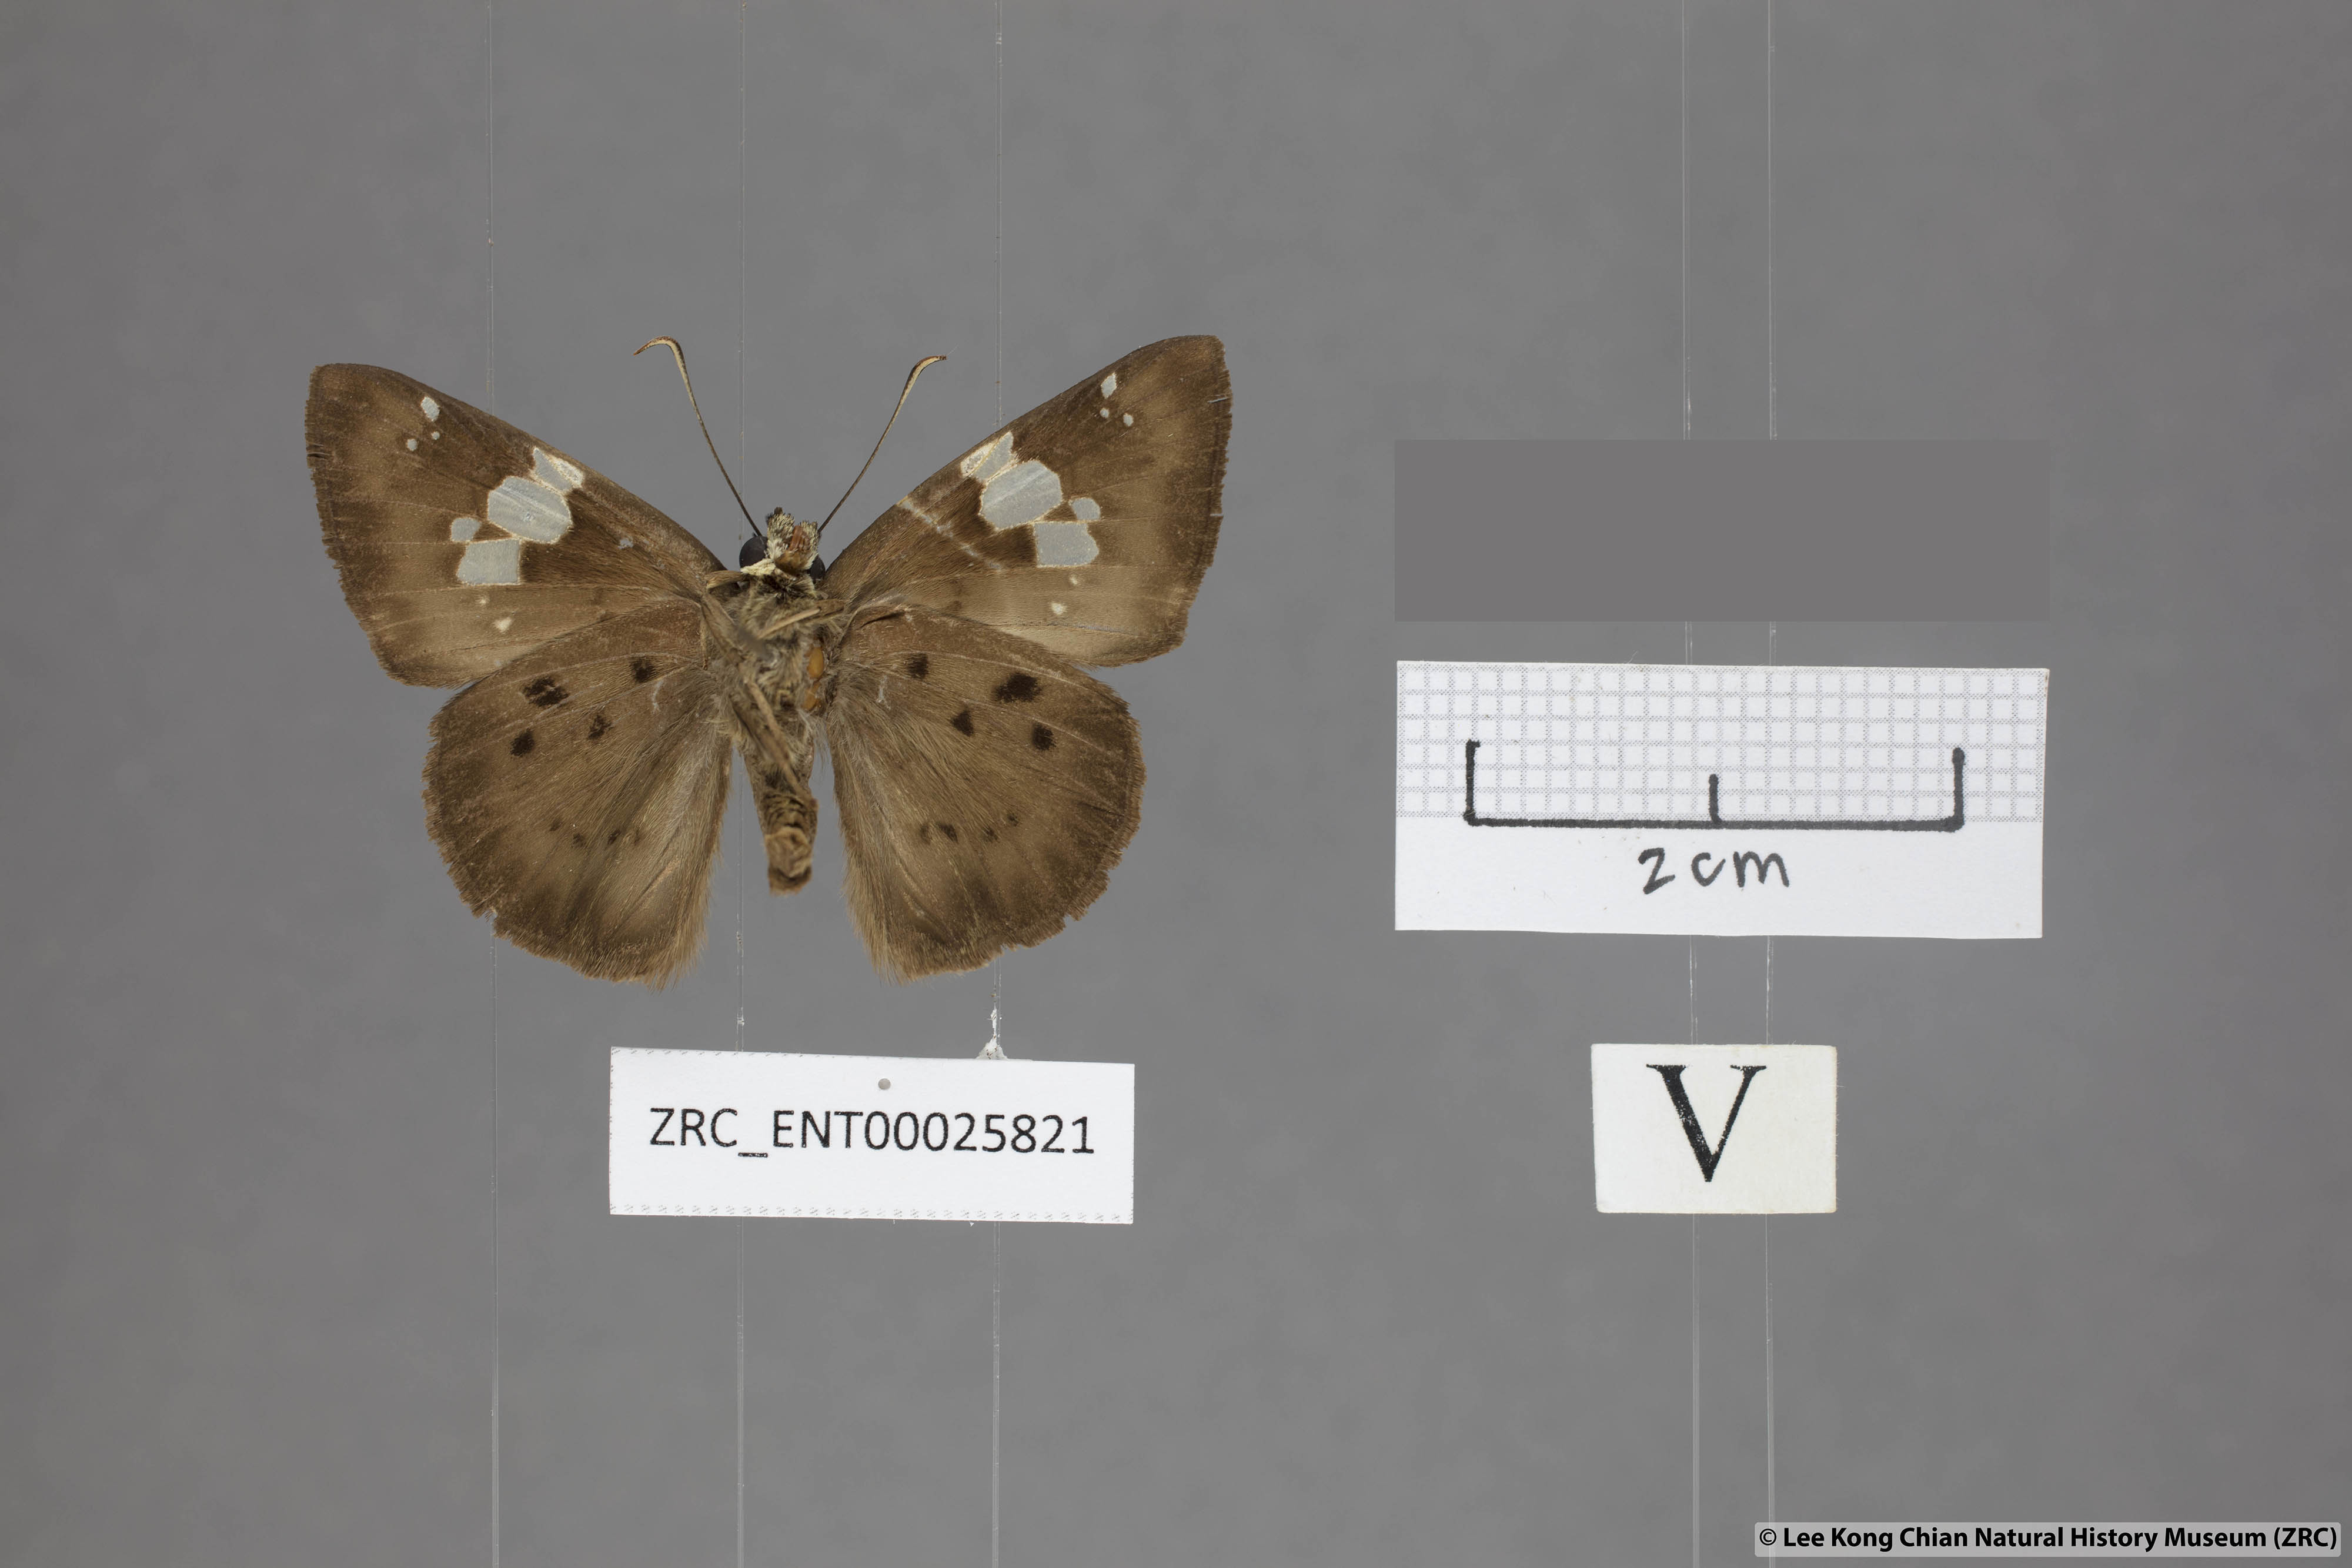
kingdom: Animalia
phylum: Arthropoda
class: Insecta
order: Lepidoptera
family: Hesperiidae
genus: Coladenia
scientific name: Coladenia laxmi
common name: Gray pied flat
